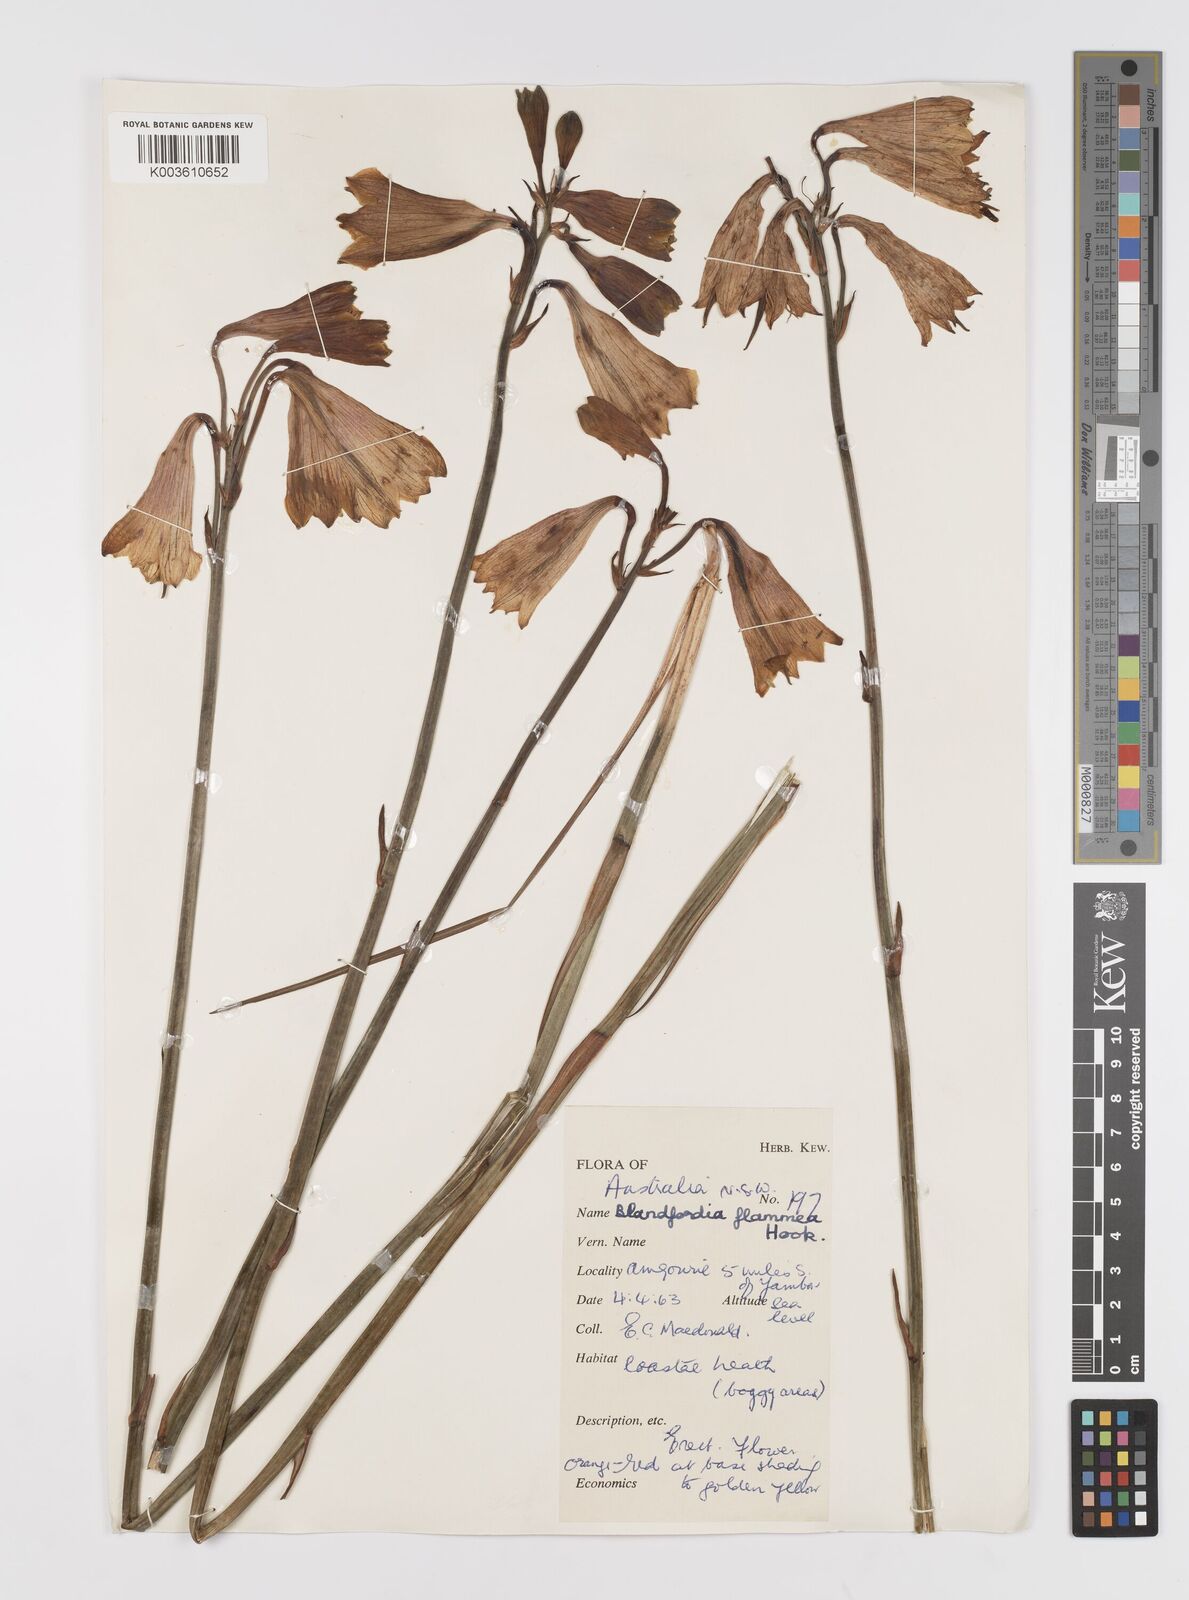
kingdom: Plantae
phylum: Tracheophyta
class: Liliopsida
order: Asparagales
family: Blandfordiaceae
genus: Blandfordia
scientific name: Blandfordia punicea
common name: Tasmanian christmas-bell
